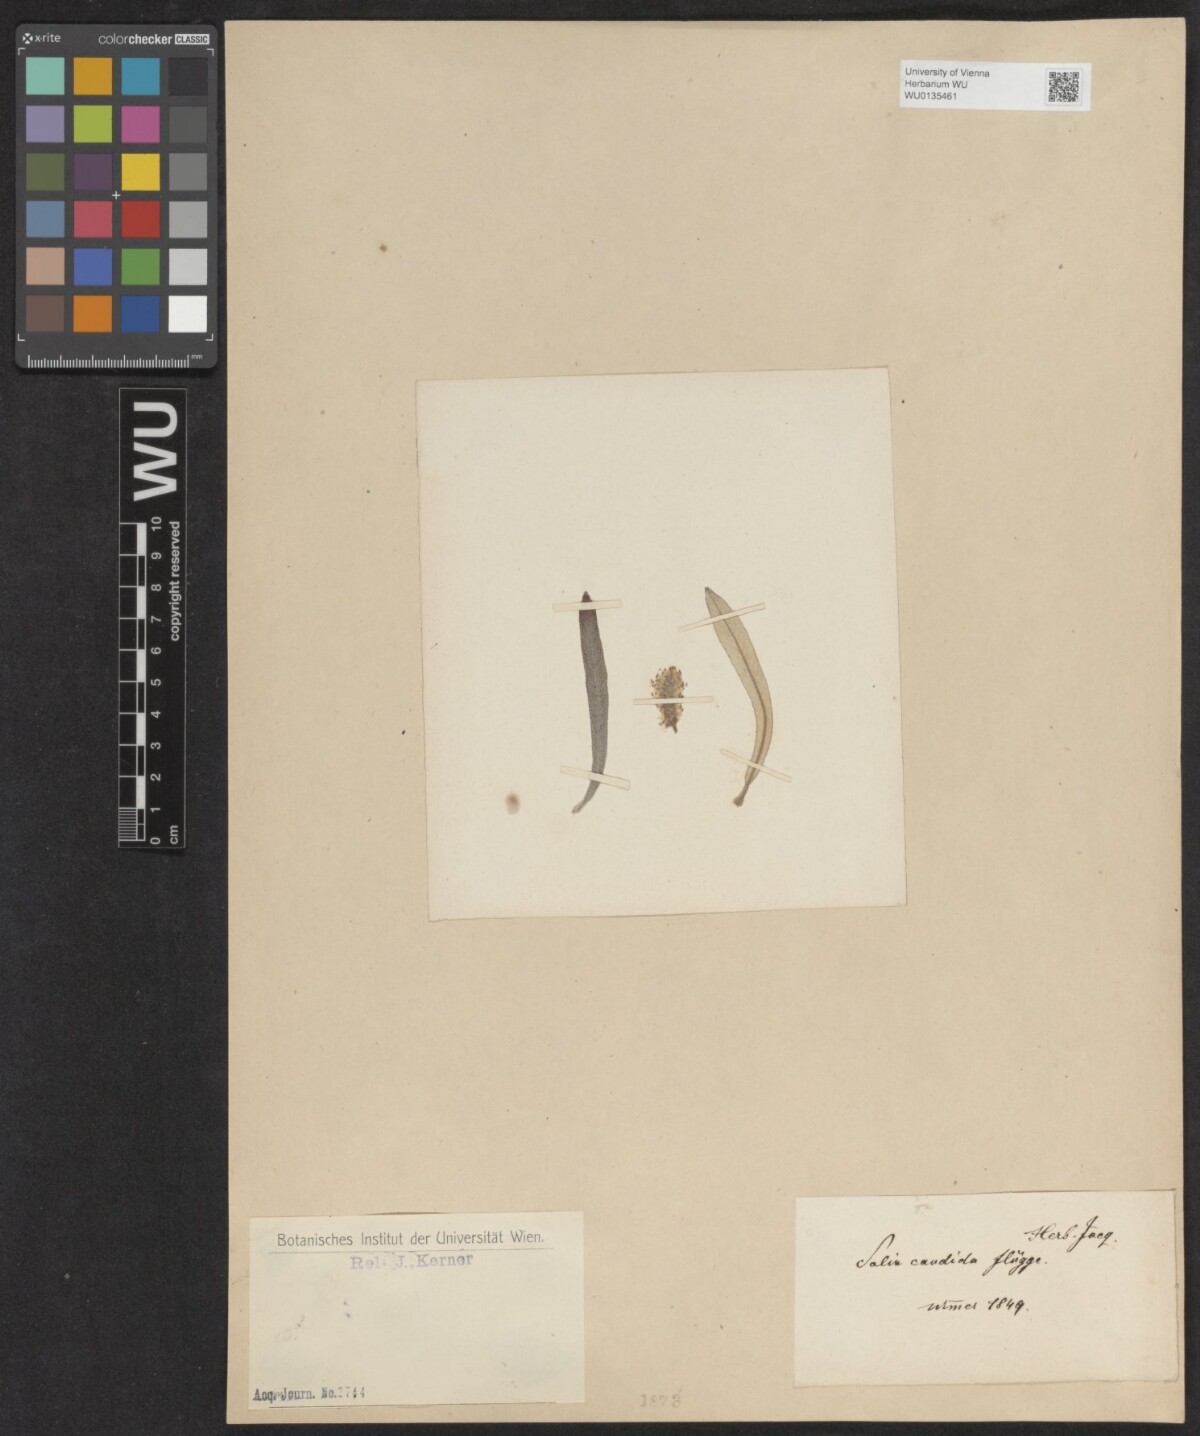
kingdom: Plantae
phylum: Tracheophyta
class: Magnoliopsida
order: Malpighiales
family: Salicaceae
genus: Salix
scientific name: Salix candida
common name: Hoary willow
